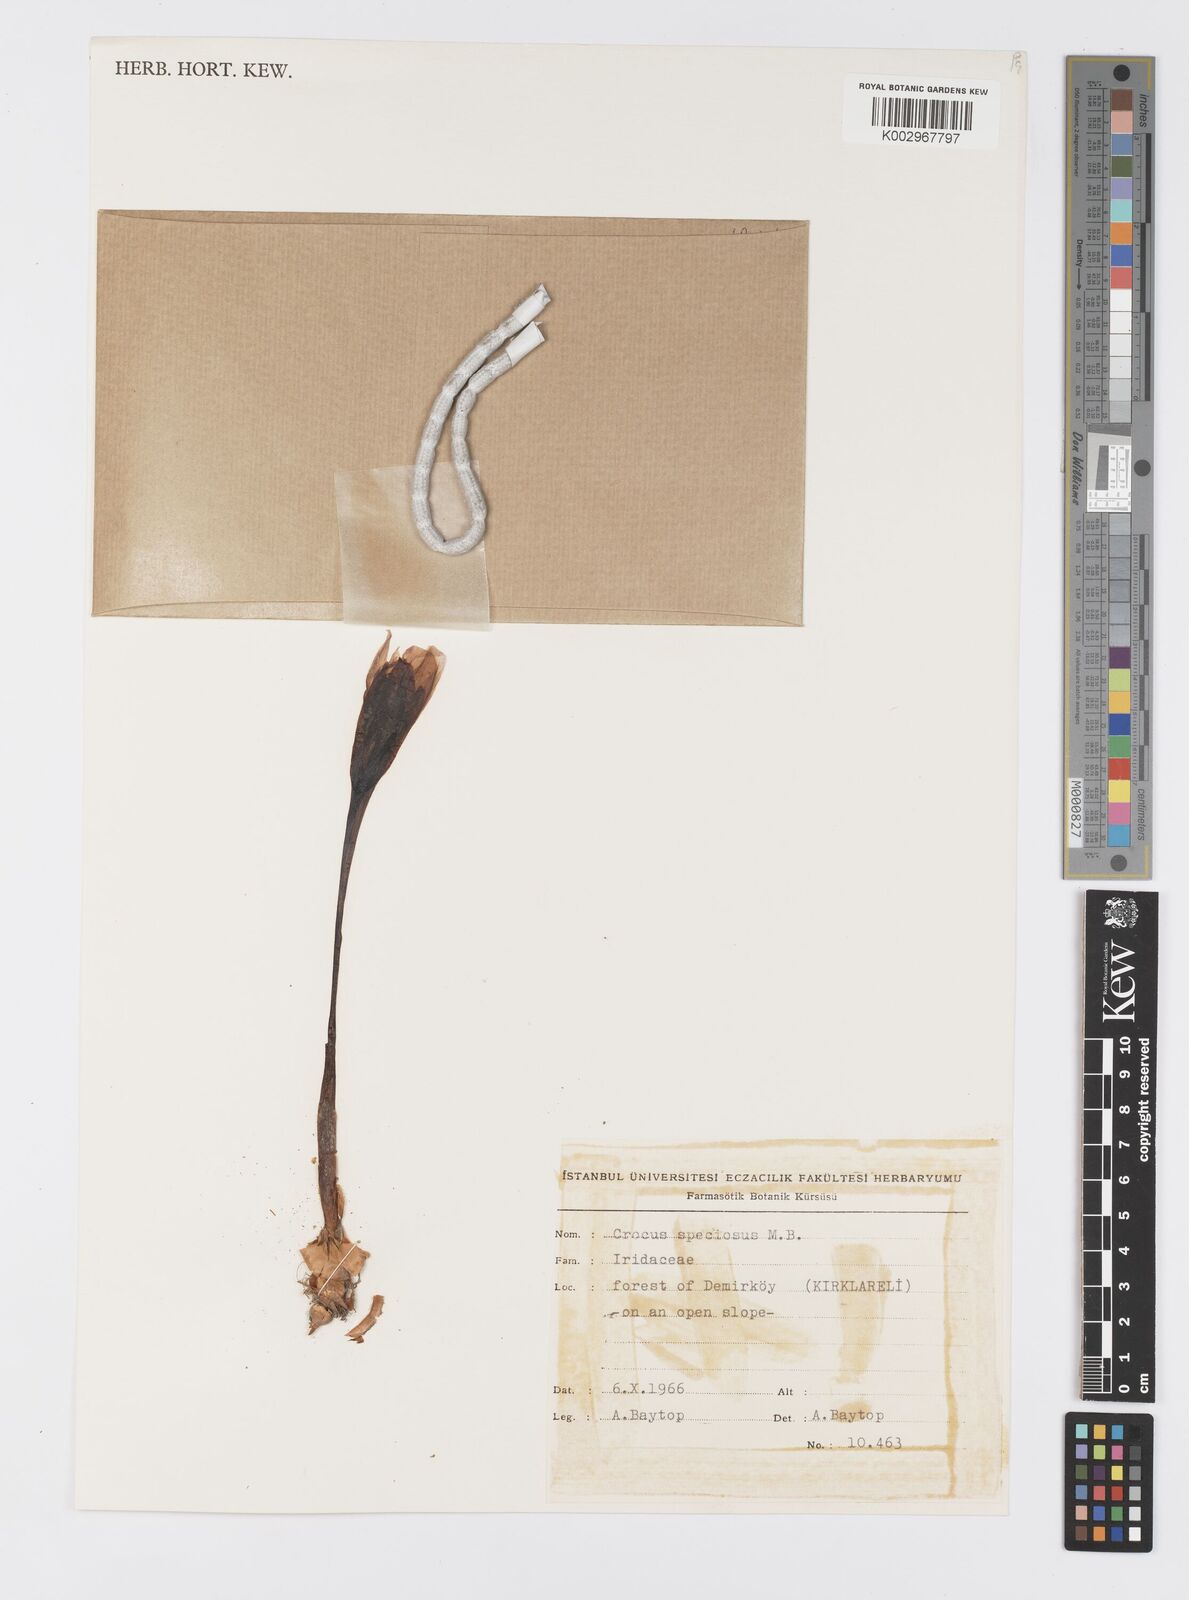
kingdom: Plantae
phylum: Tracheophyta
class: Liliopsida
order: Asparagales
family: Iridaceae
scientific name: Iridaceae
